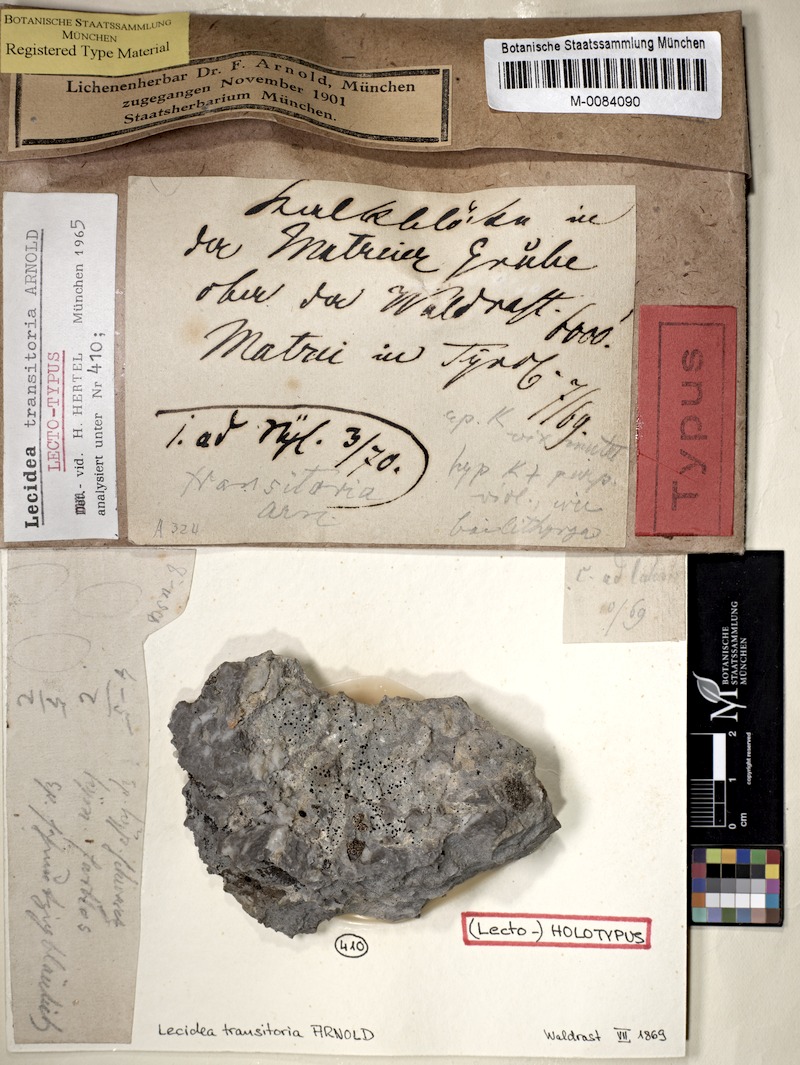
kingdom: Fungi
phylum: Ascomycota
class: Lecanoromycetes
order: Lecideales
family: Lecideaceae
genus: Melanolecia
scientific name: Melanolecia transitoria
